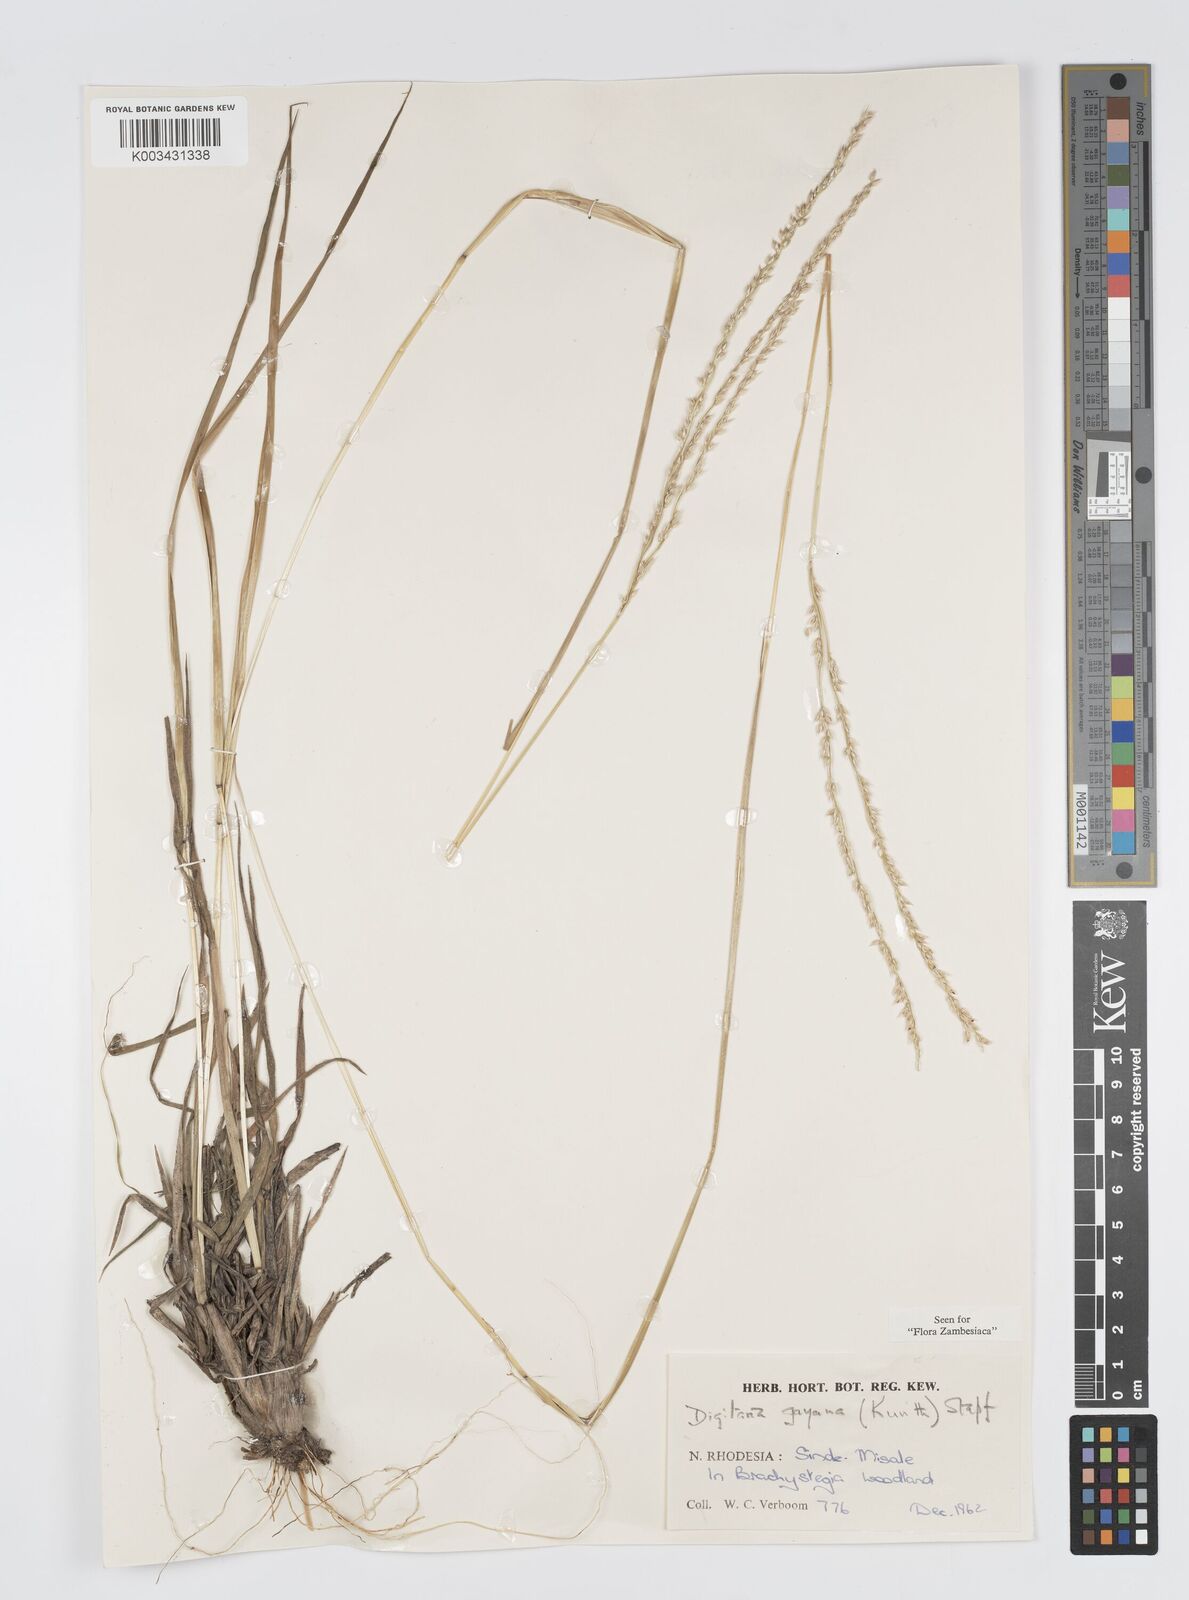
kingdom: Plantae
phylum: Tracheophyta
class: Liliopsida
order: Poales
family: Poaceae
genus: Digitaria
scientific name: Digitaria brazzae
